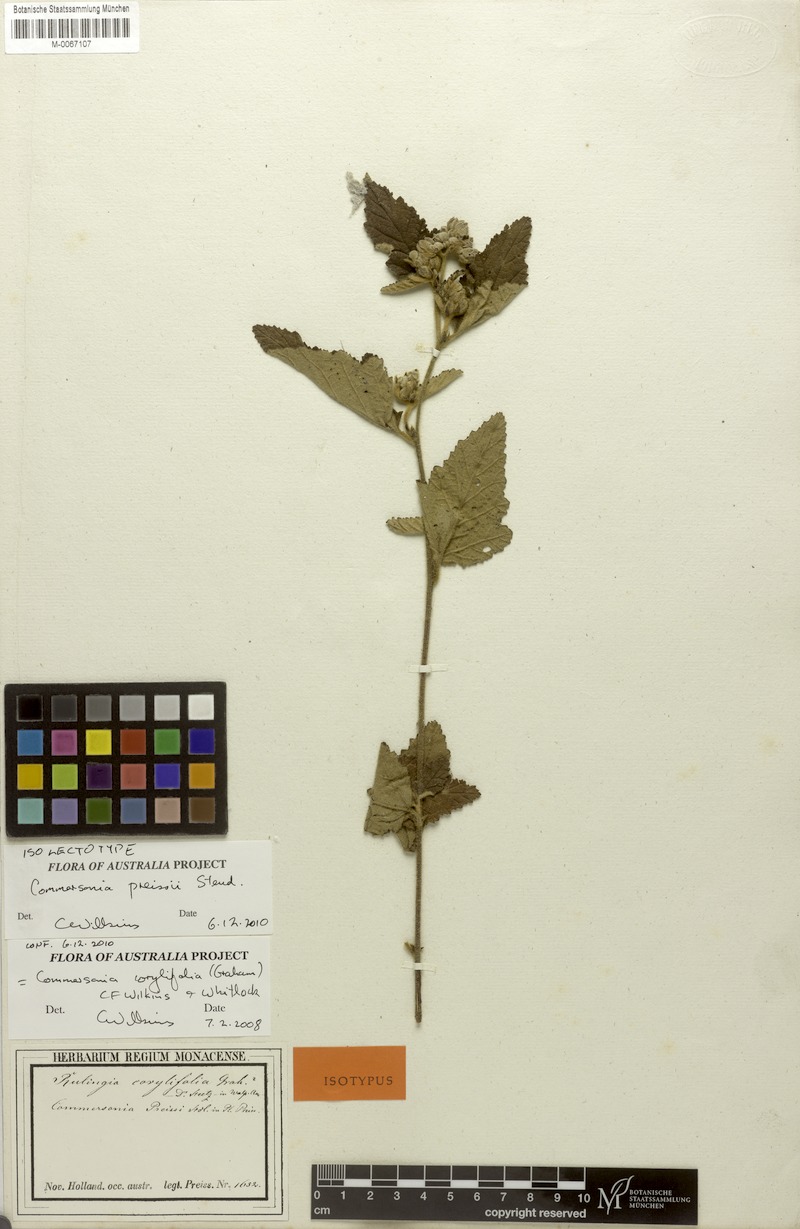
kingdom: Plantae
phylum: Tracheophyta
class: Magnoliopsida
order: Malvales
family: Malvaceae
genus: Commersonia
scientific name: Commersonia corylifolia
